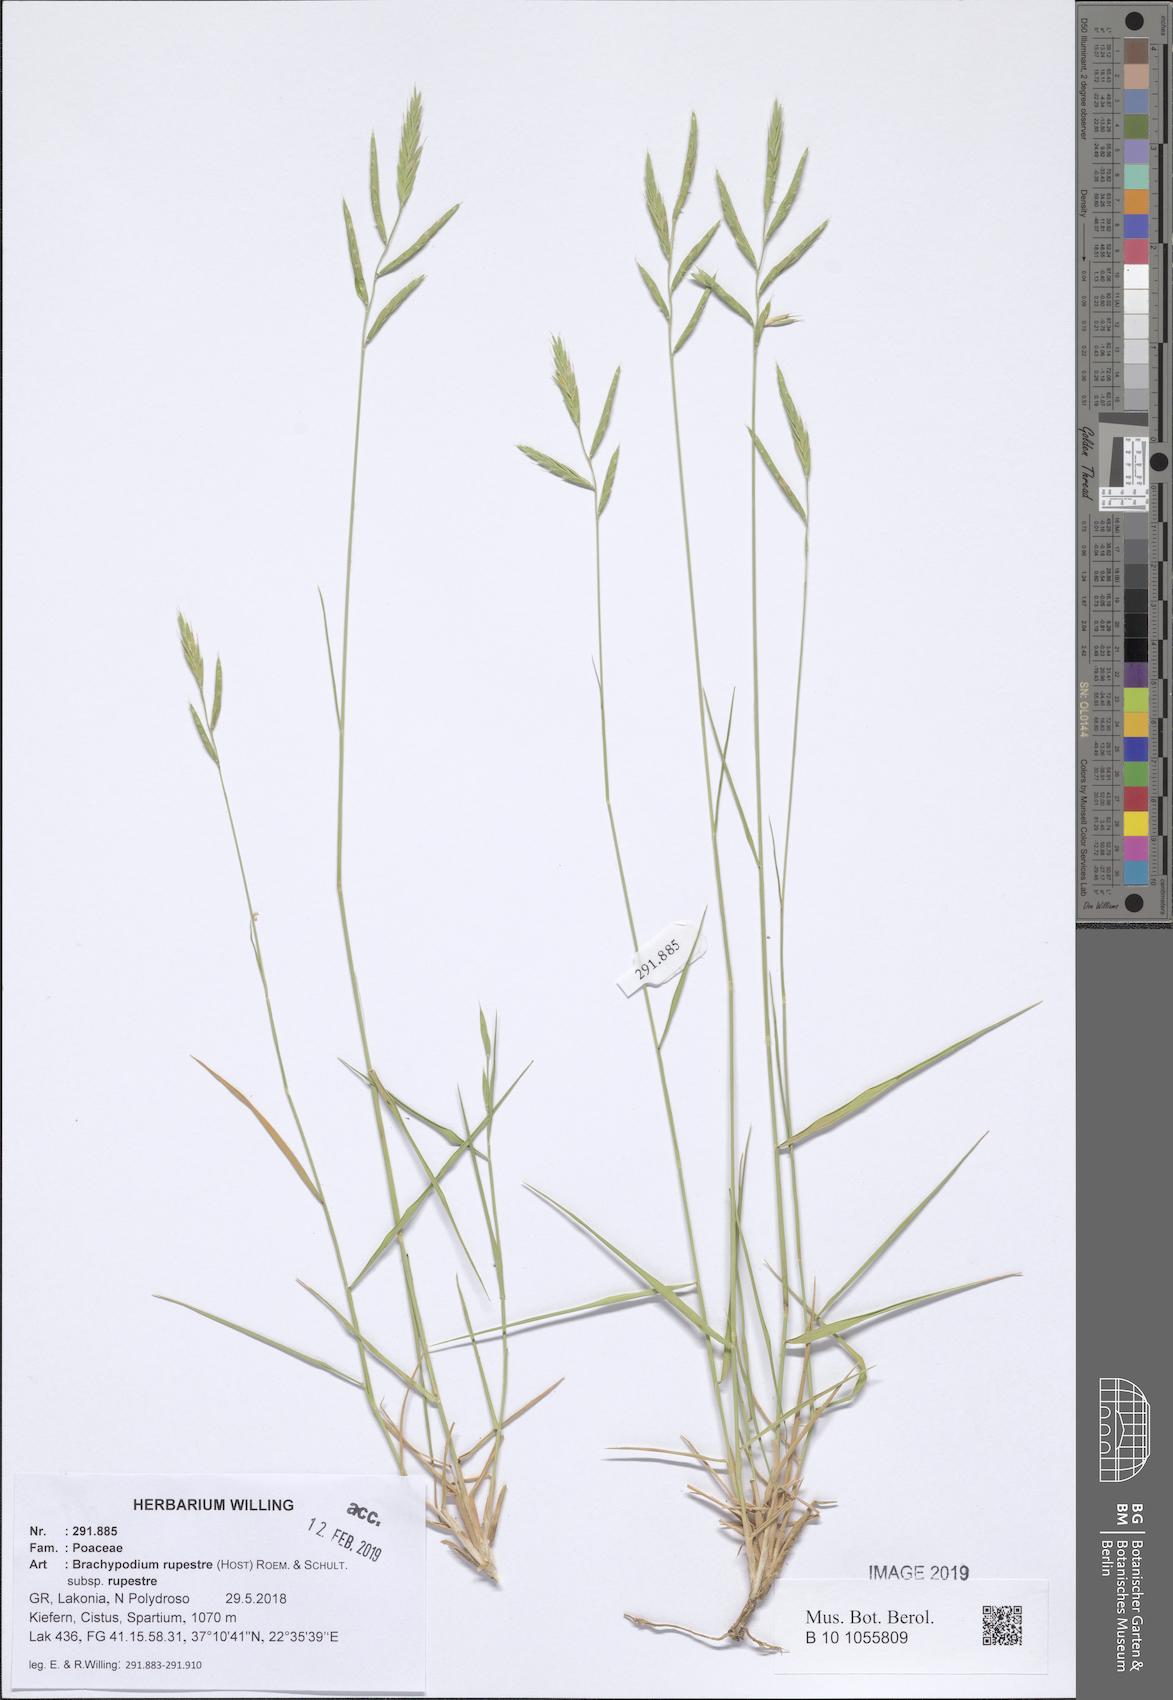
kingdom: Plantae
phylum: Tracheophyta
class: Liliopsida
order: Poales
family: Poaceae
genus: Brachypodium
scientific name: Brachypodium pinnatum
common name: Tor grass
